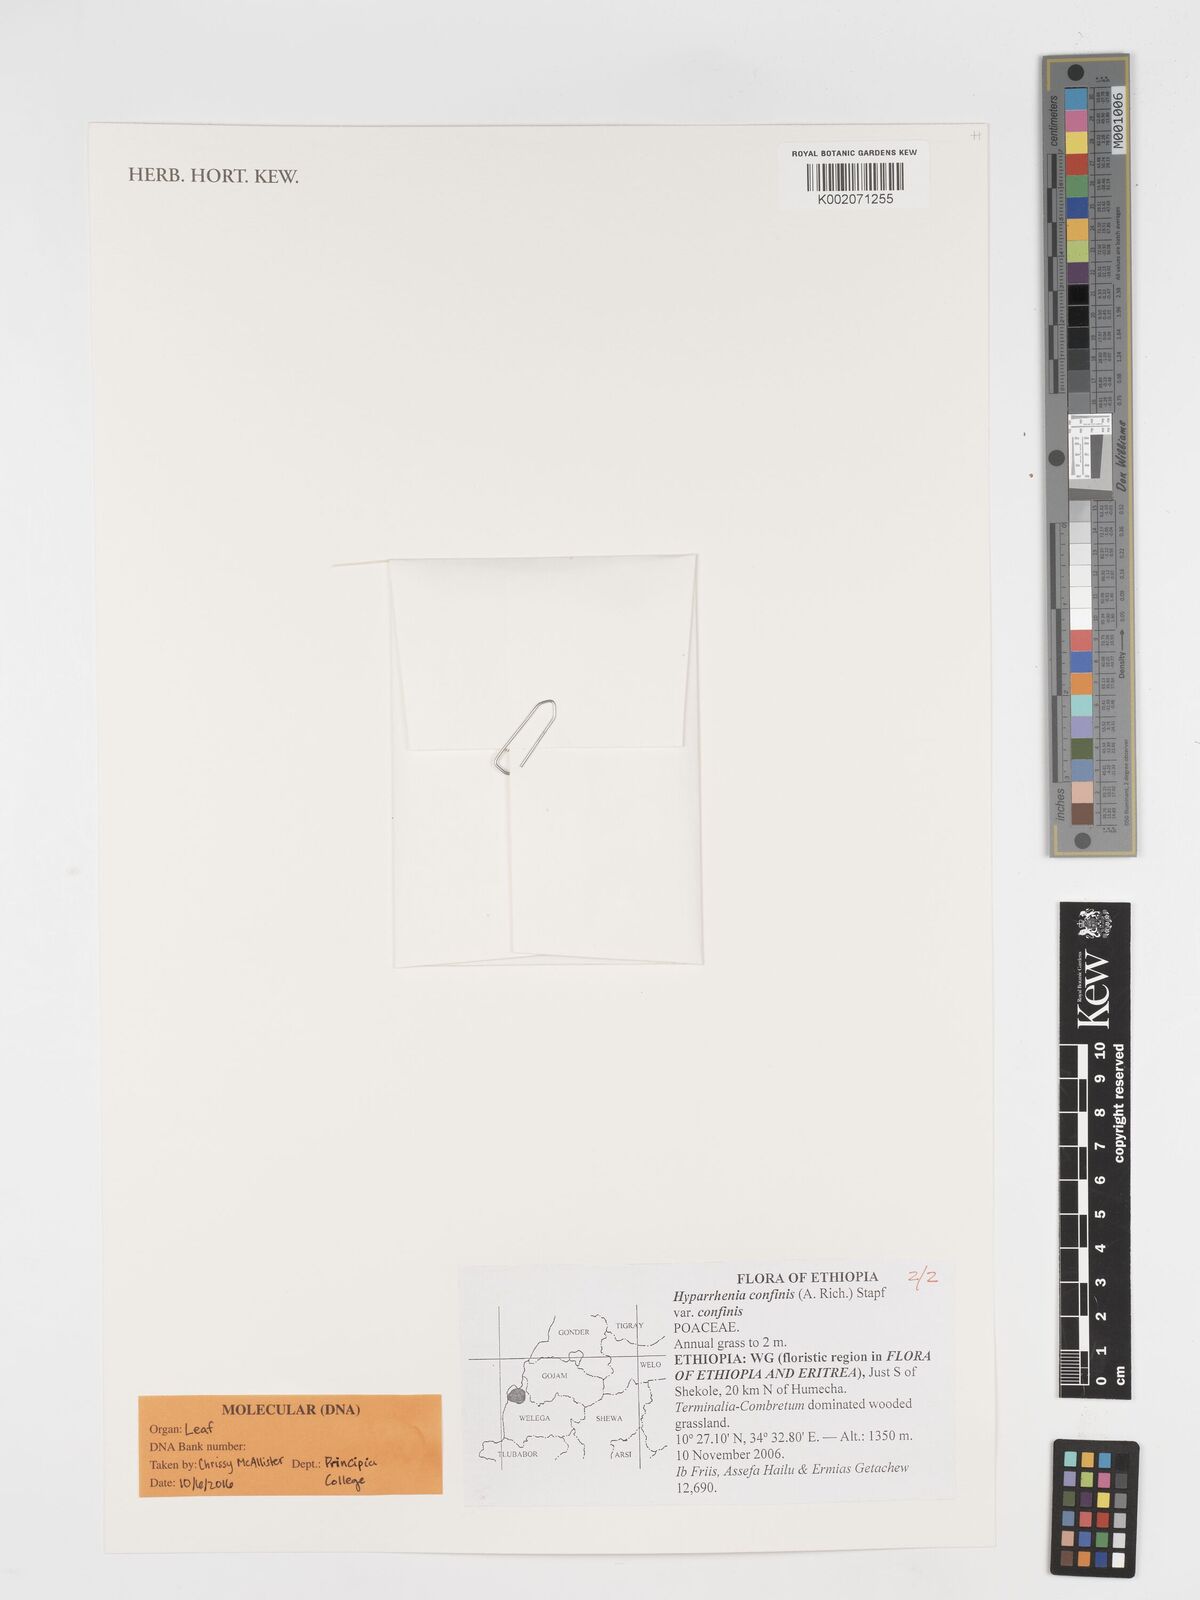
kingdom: Plantae
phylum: Tracheophyta
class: Liliopsida
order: Poales
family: Poaceae
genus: Hyparrhenia
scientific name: Hyparrhenia confinis
